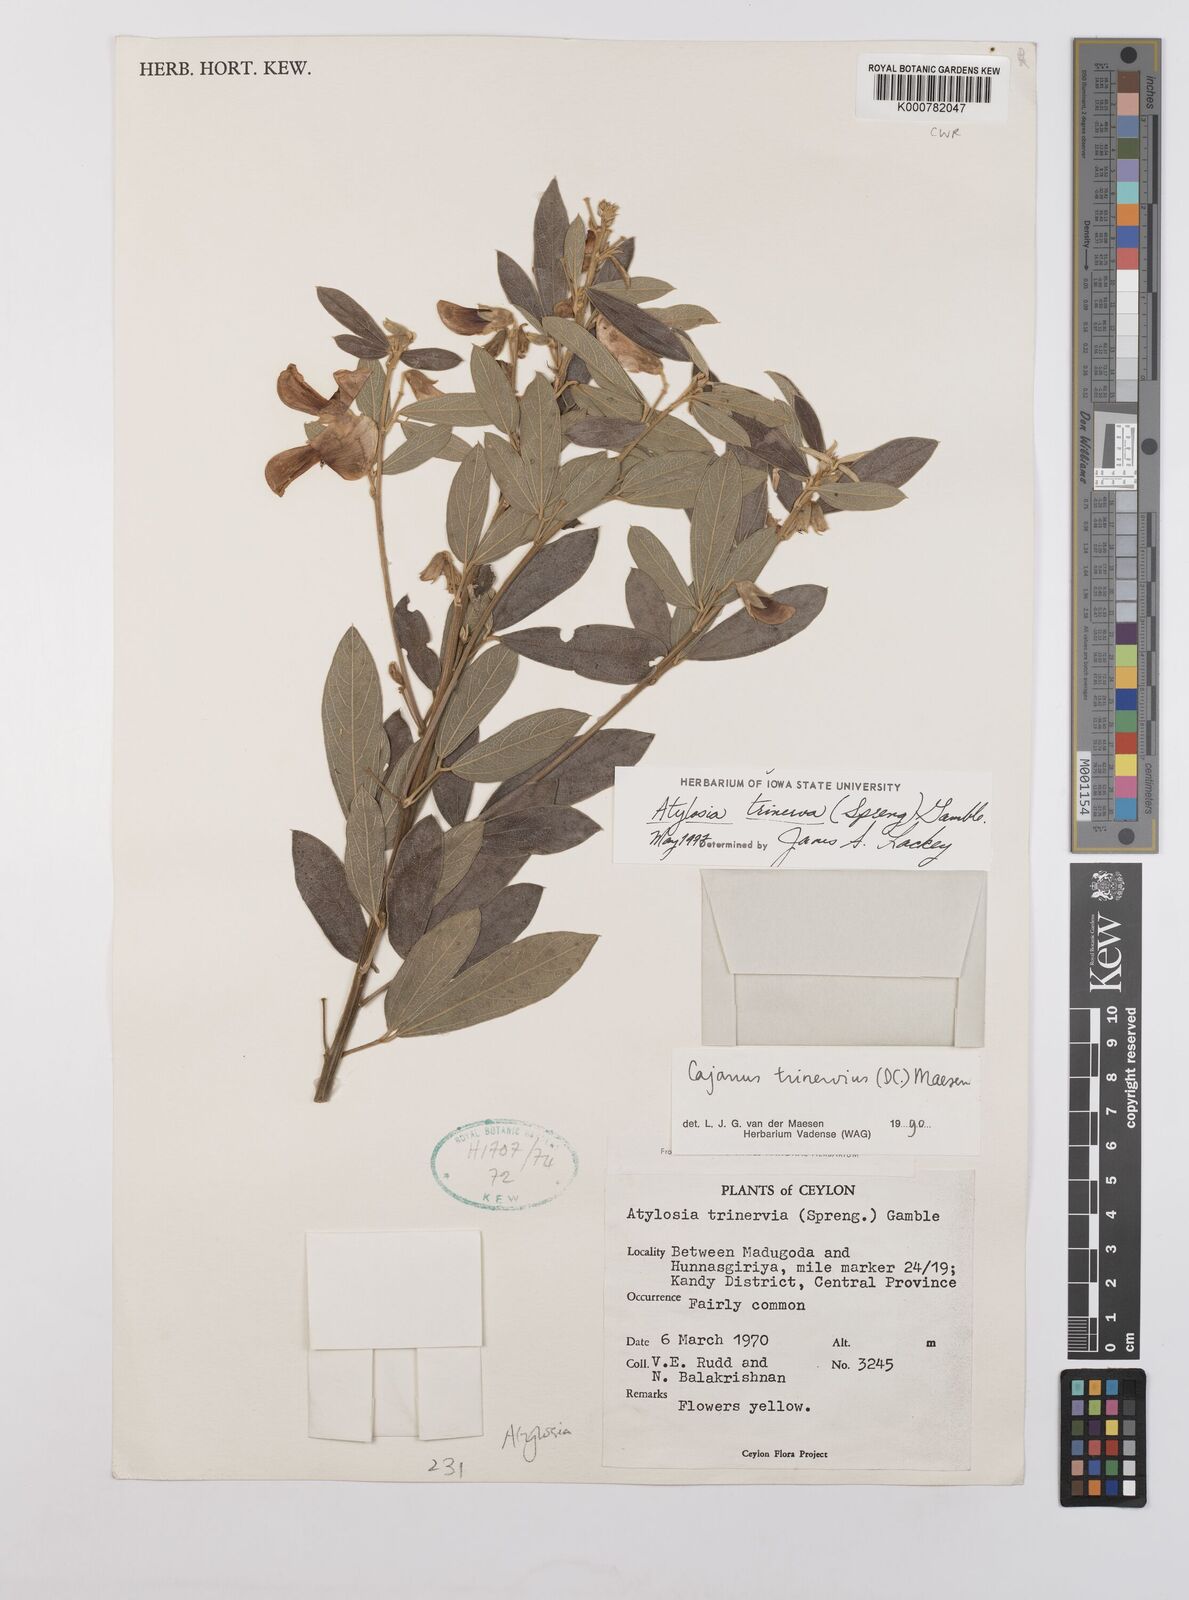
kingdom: Plantae
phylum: Tracheophyta
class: Magnoliopsida
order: Fabales
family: Fabaceae
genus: Cajanus
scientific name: Cajanus
